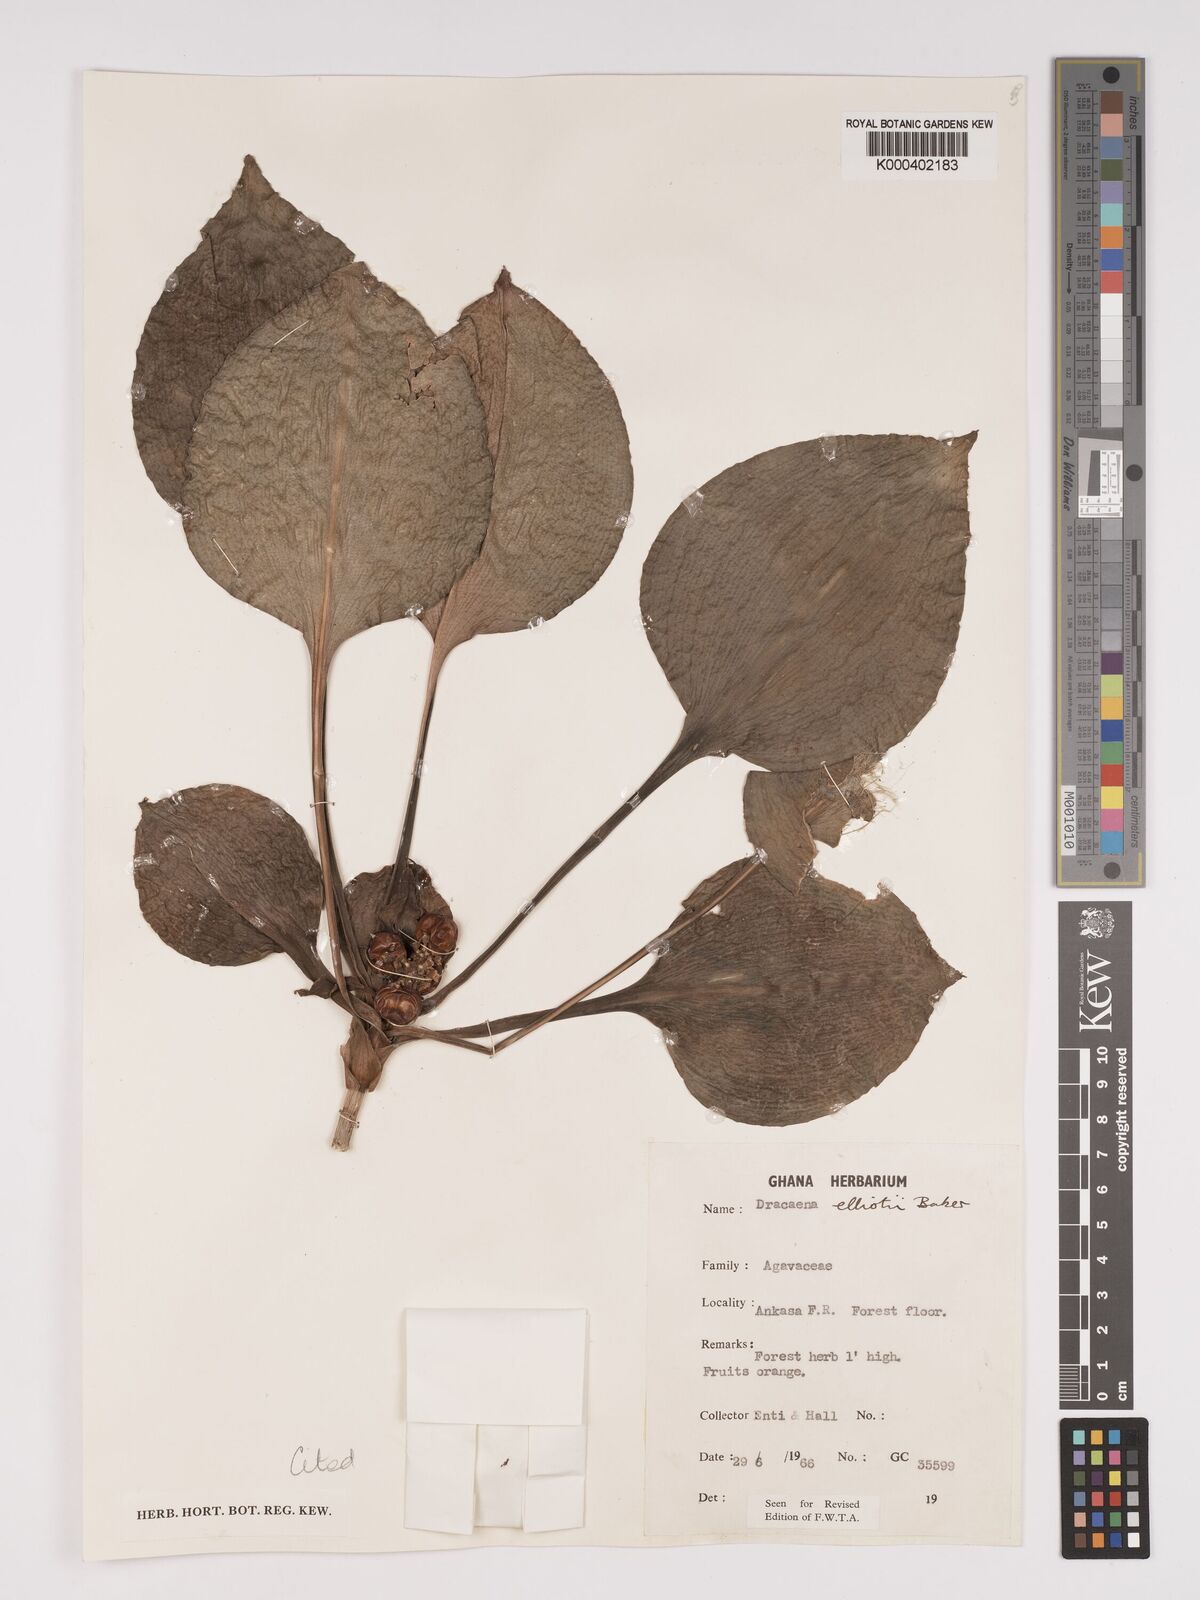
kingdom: Plantae
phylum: Tracheophyta
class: Liliopsida
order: Asparagales
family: Asparagaceae
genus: Dracaena
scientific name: Dracaena cristula
